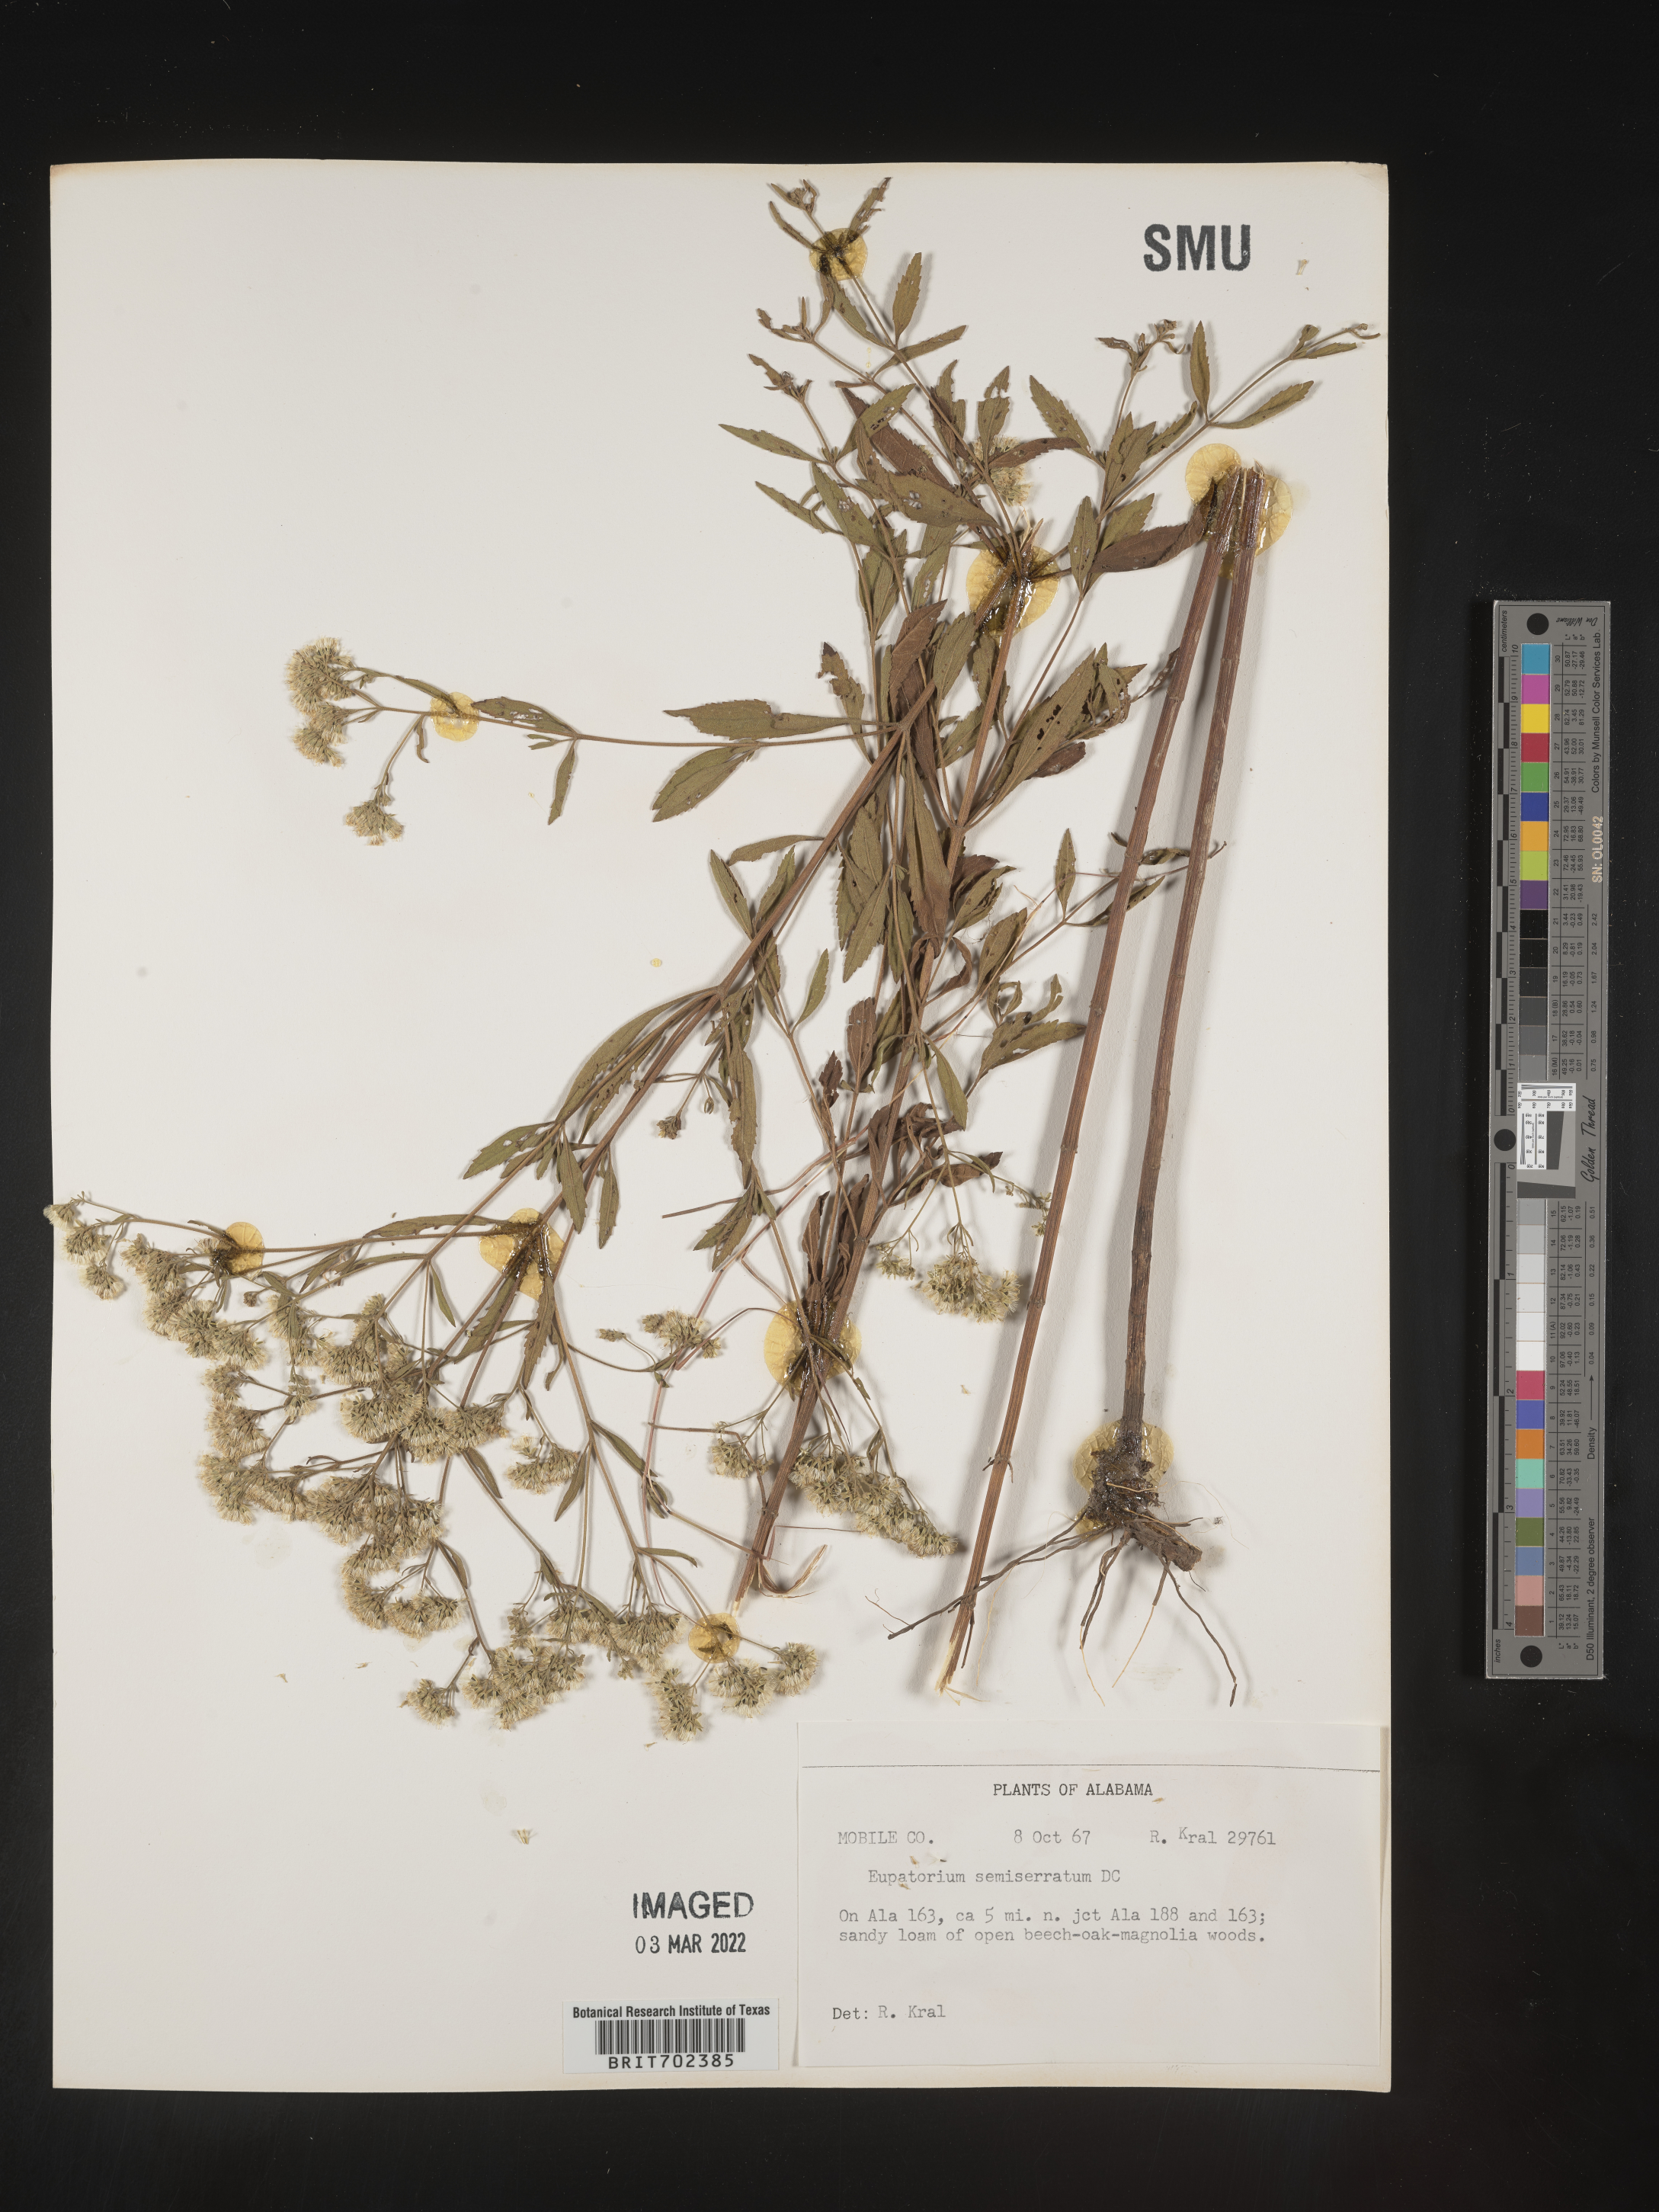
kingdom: Plantae
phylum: Tracheophyta
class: Magnoliopsida
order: Asterales
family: Asteraceae
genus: Eupatorium
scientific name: Eupatorium semiserratum
